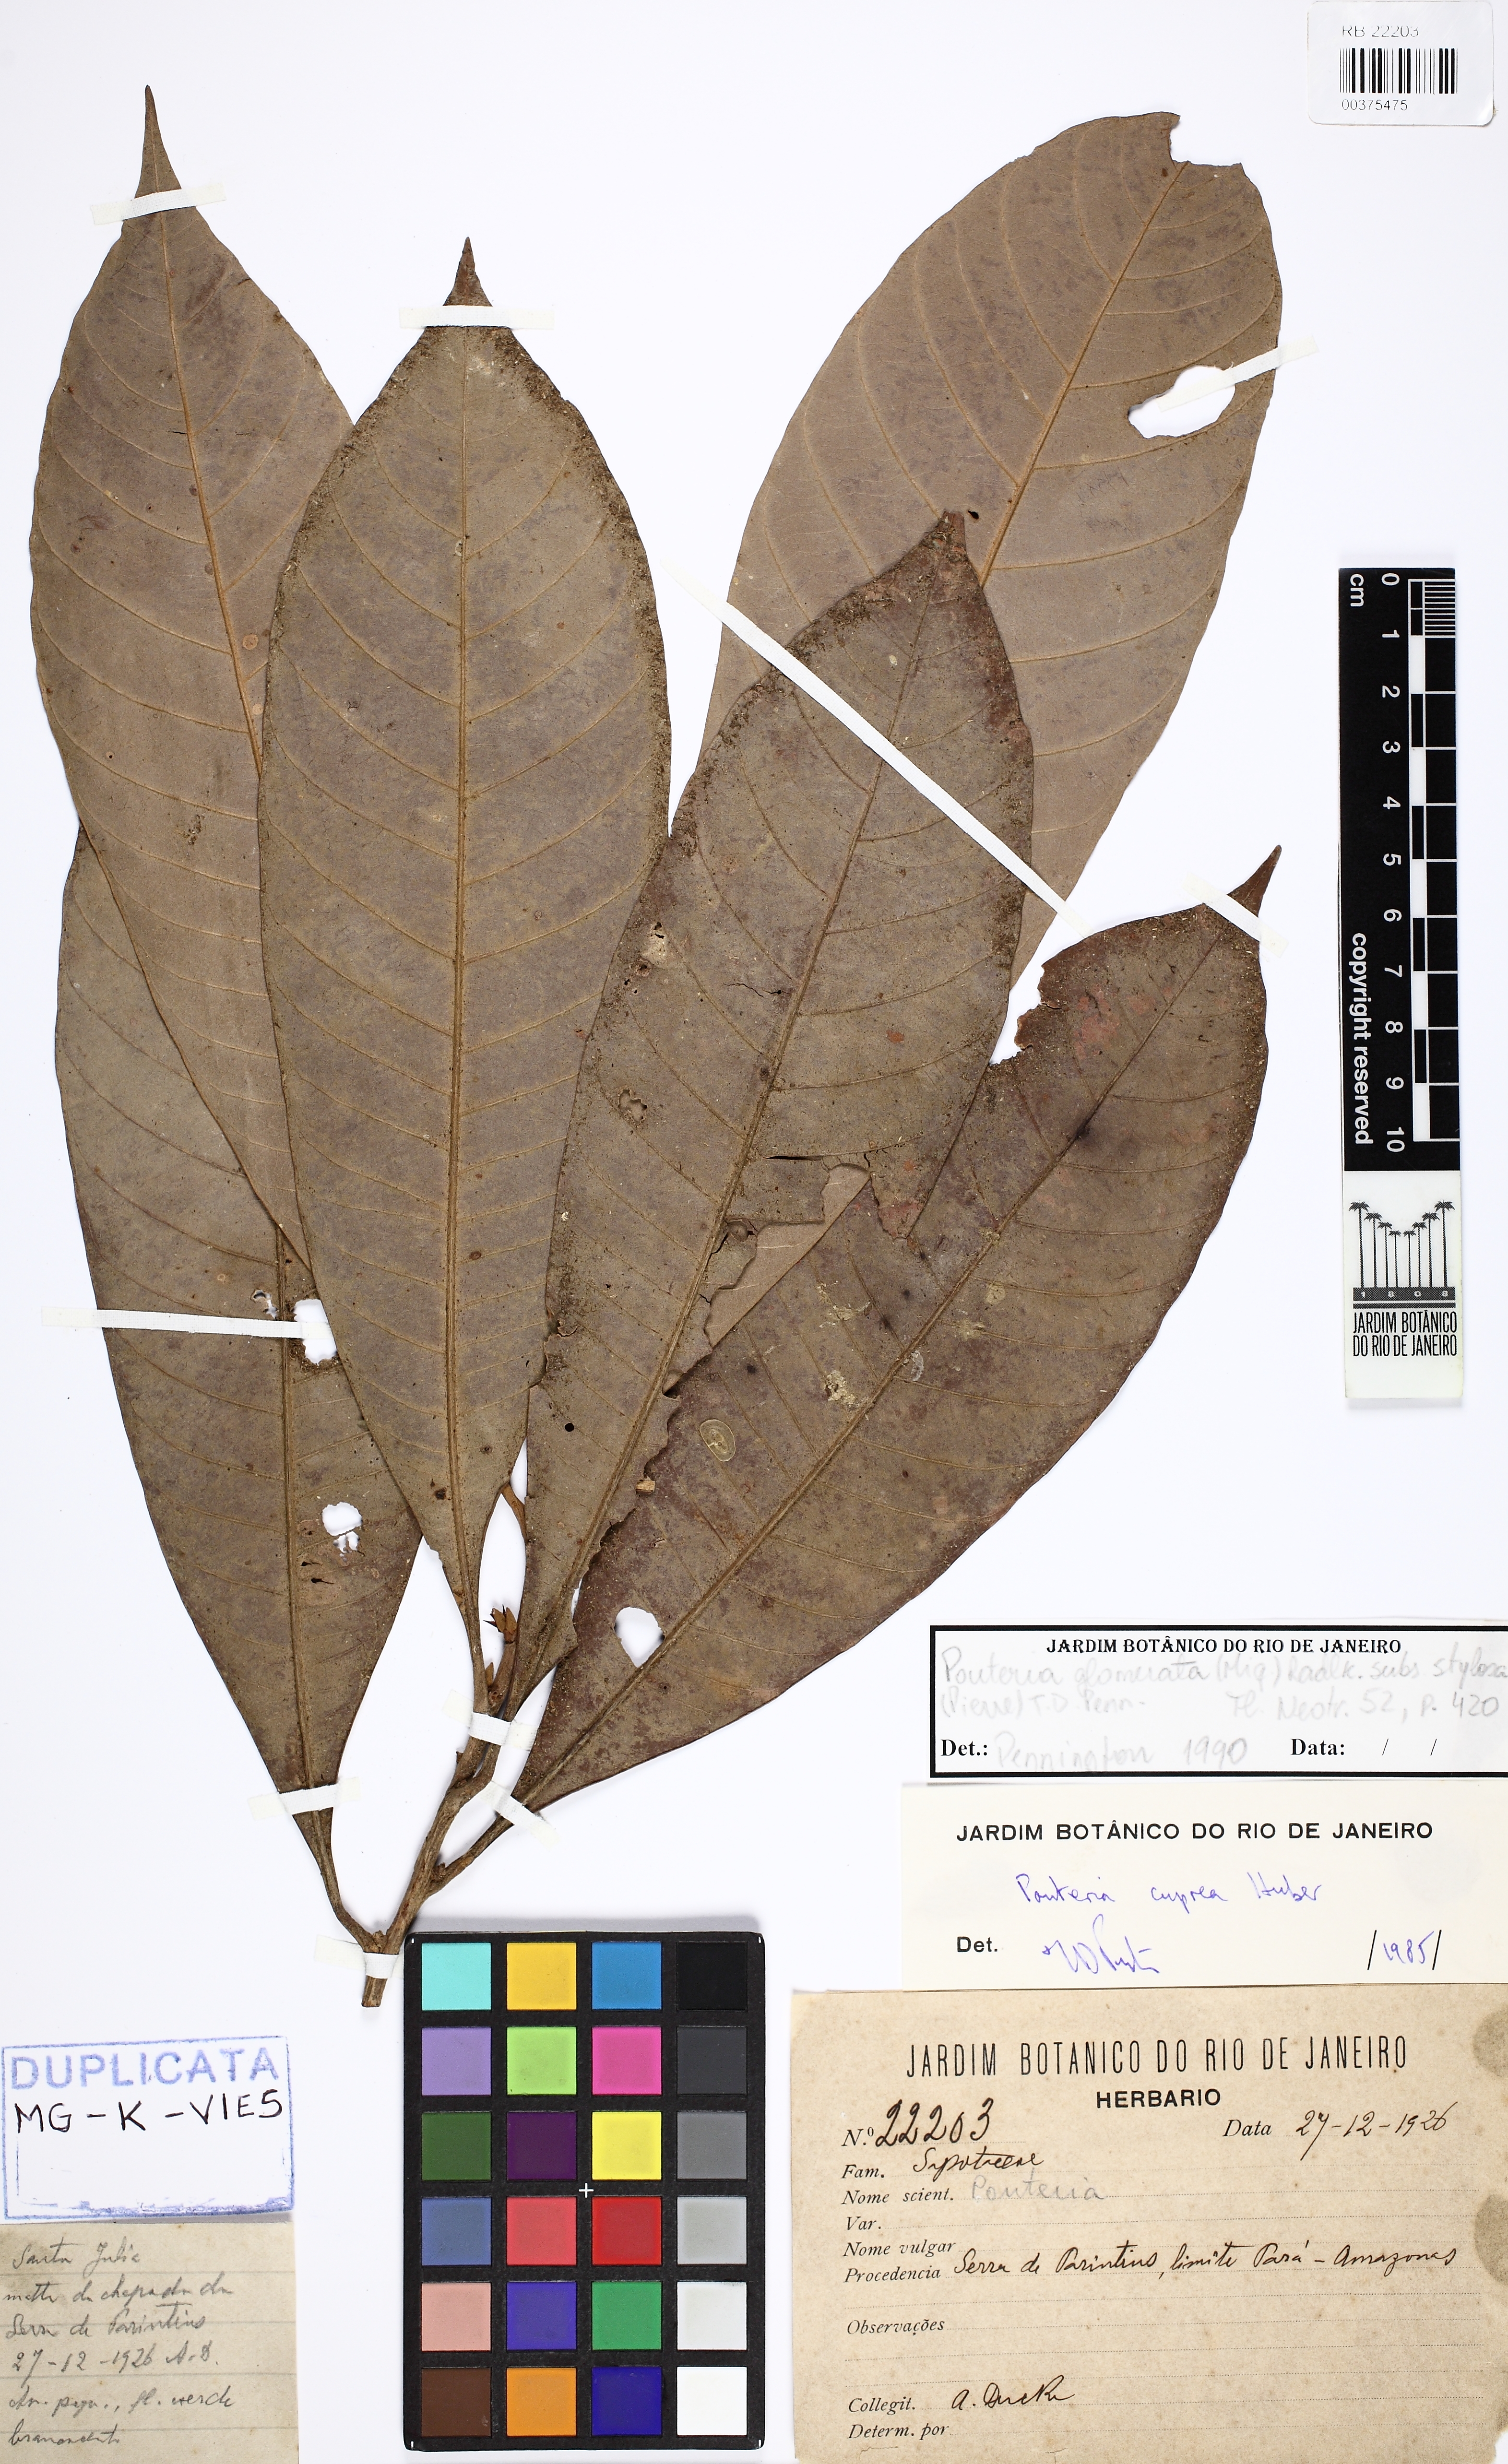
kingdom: Plantae
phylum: Tracheophyta
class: Magnoliopsida
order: Ericales
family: Sapotaceae
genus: Pouteria
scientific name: Pouteria glomerata
